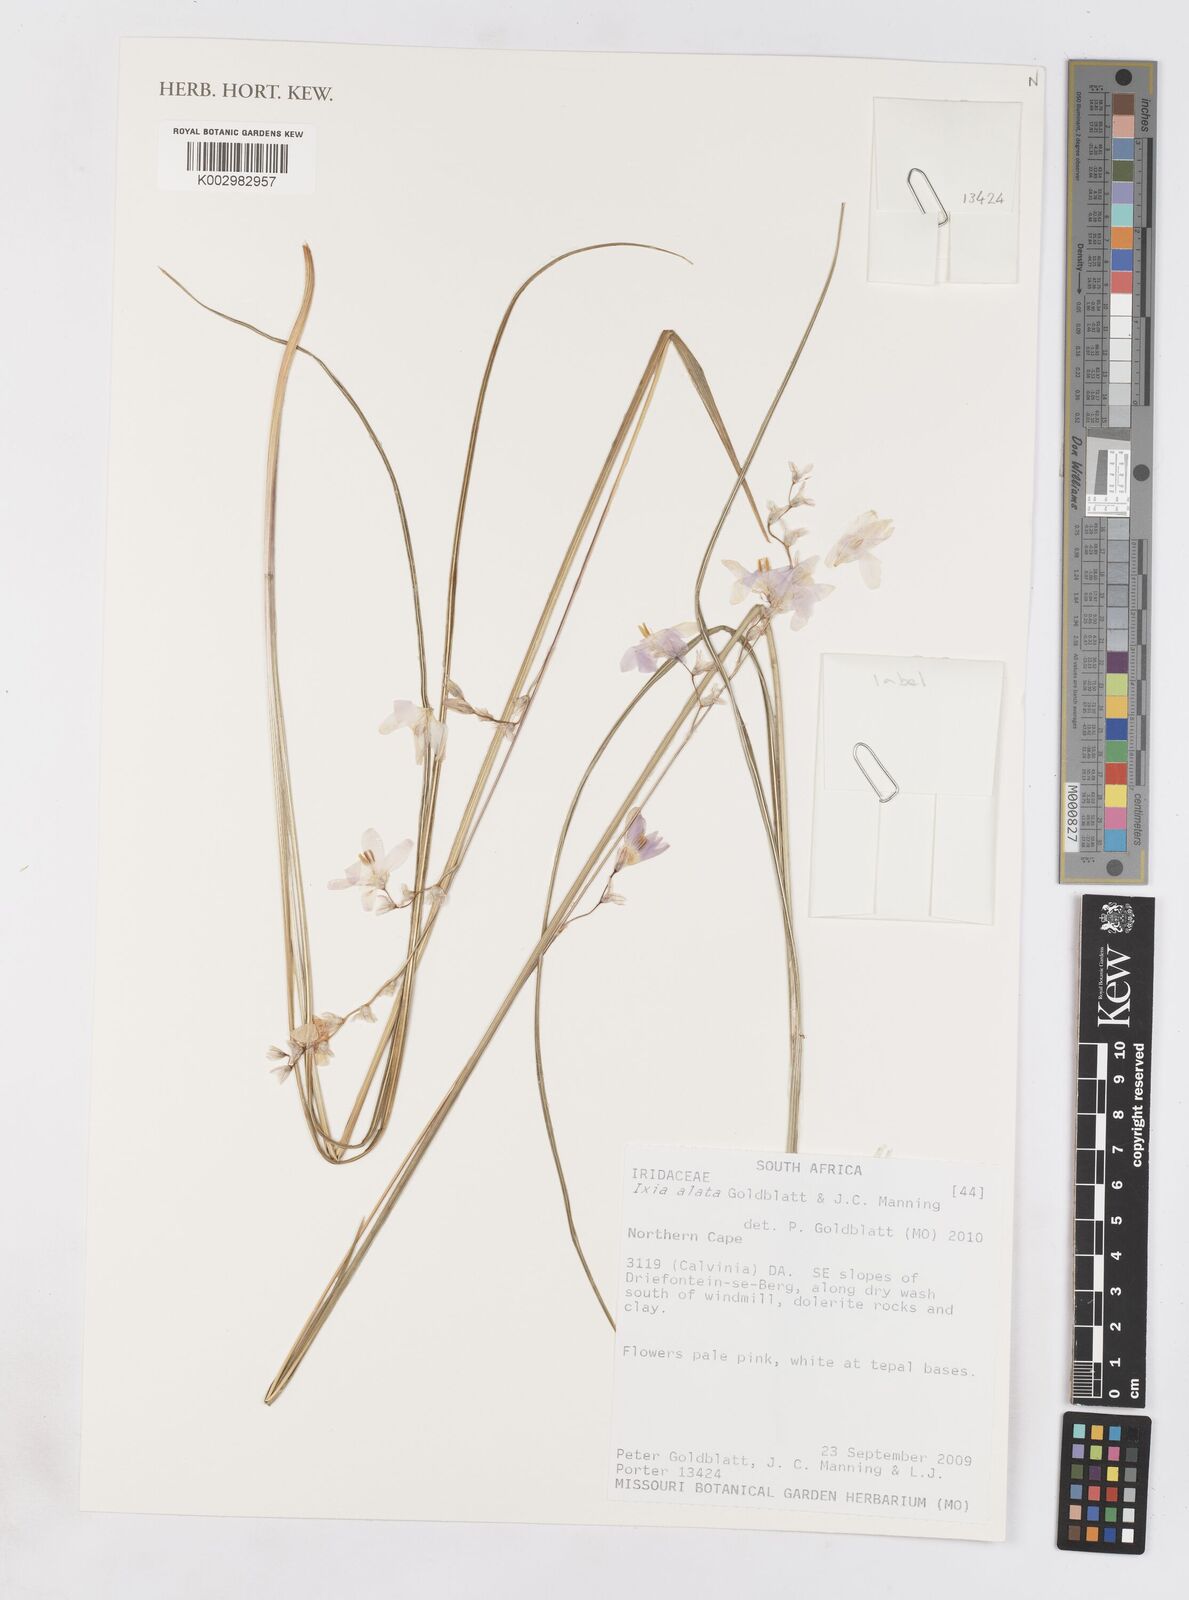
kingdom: Plantae
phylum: Tracheophyta
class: Liliopsida
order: Asparagales
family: Iridaceae
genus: Ixia
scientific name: Ixia alata
